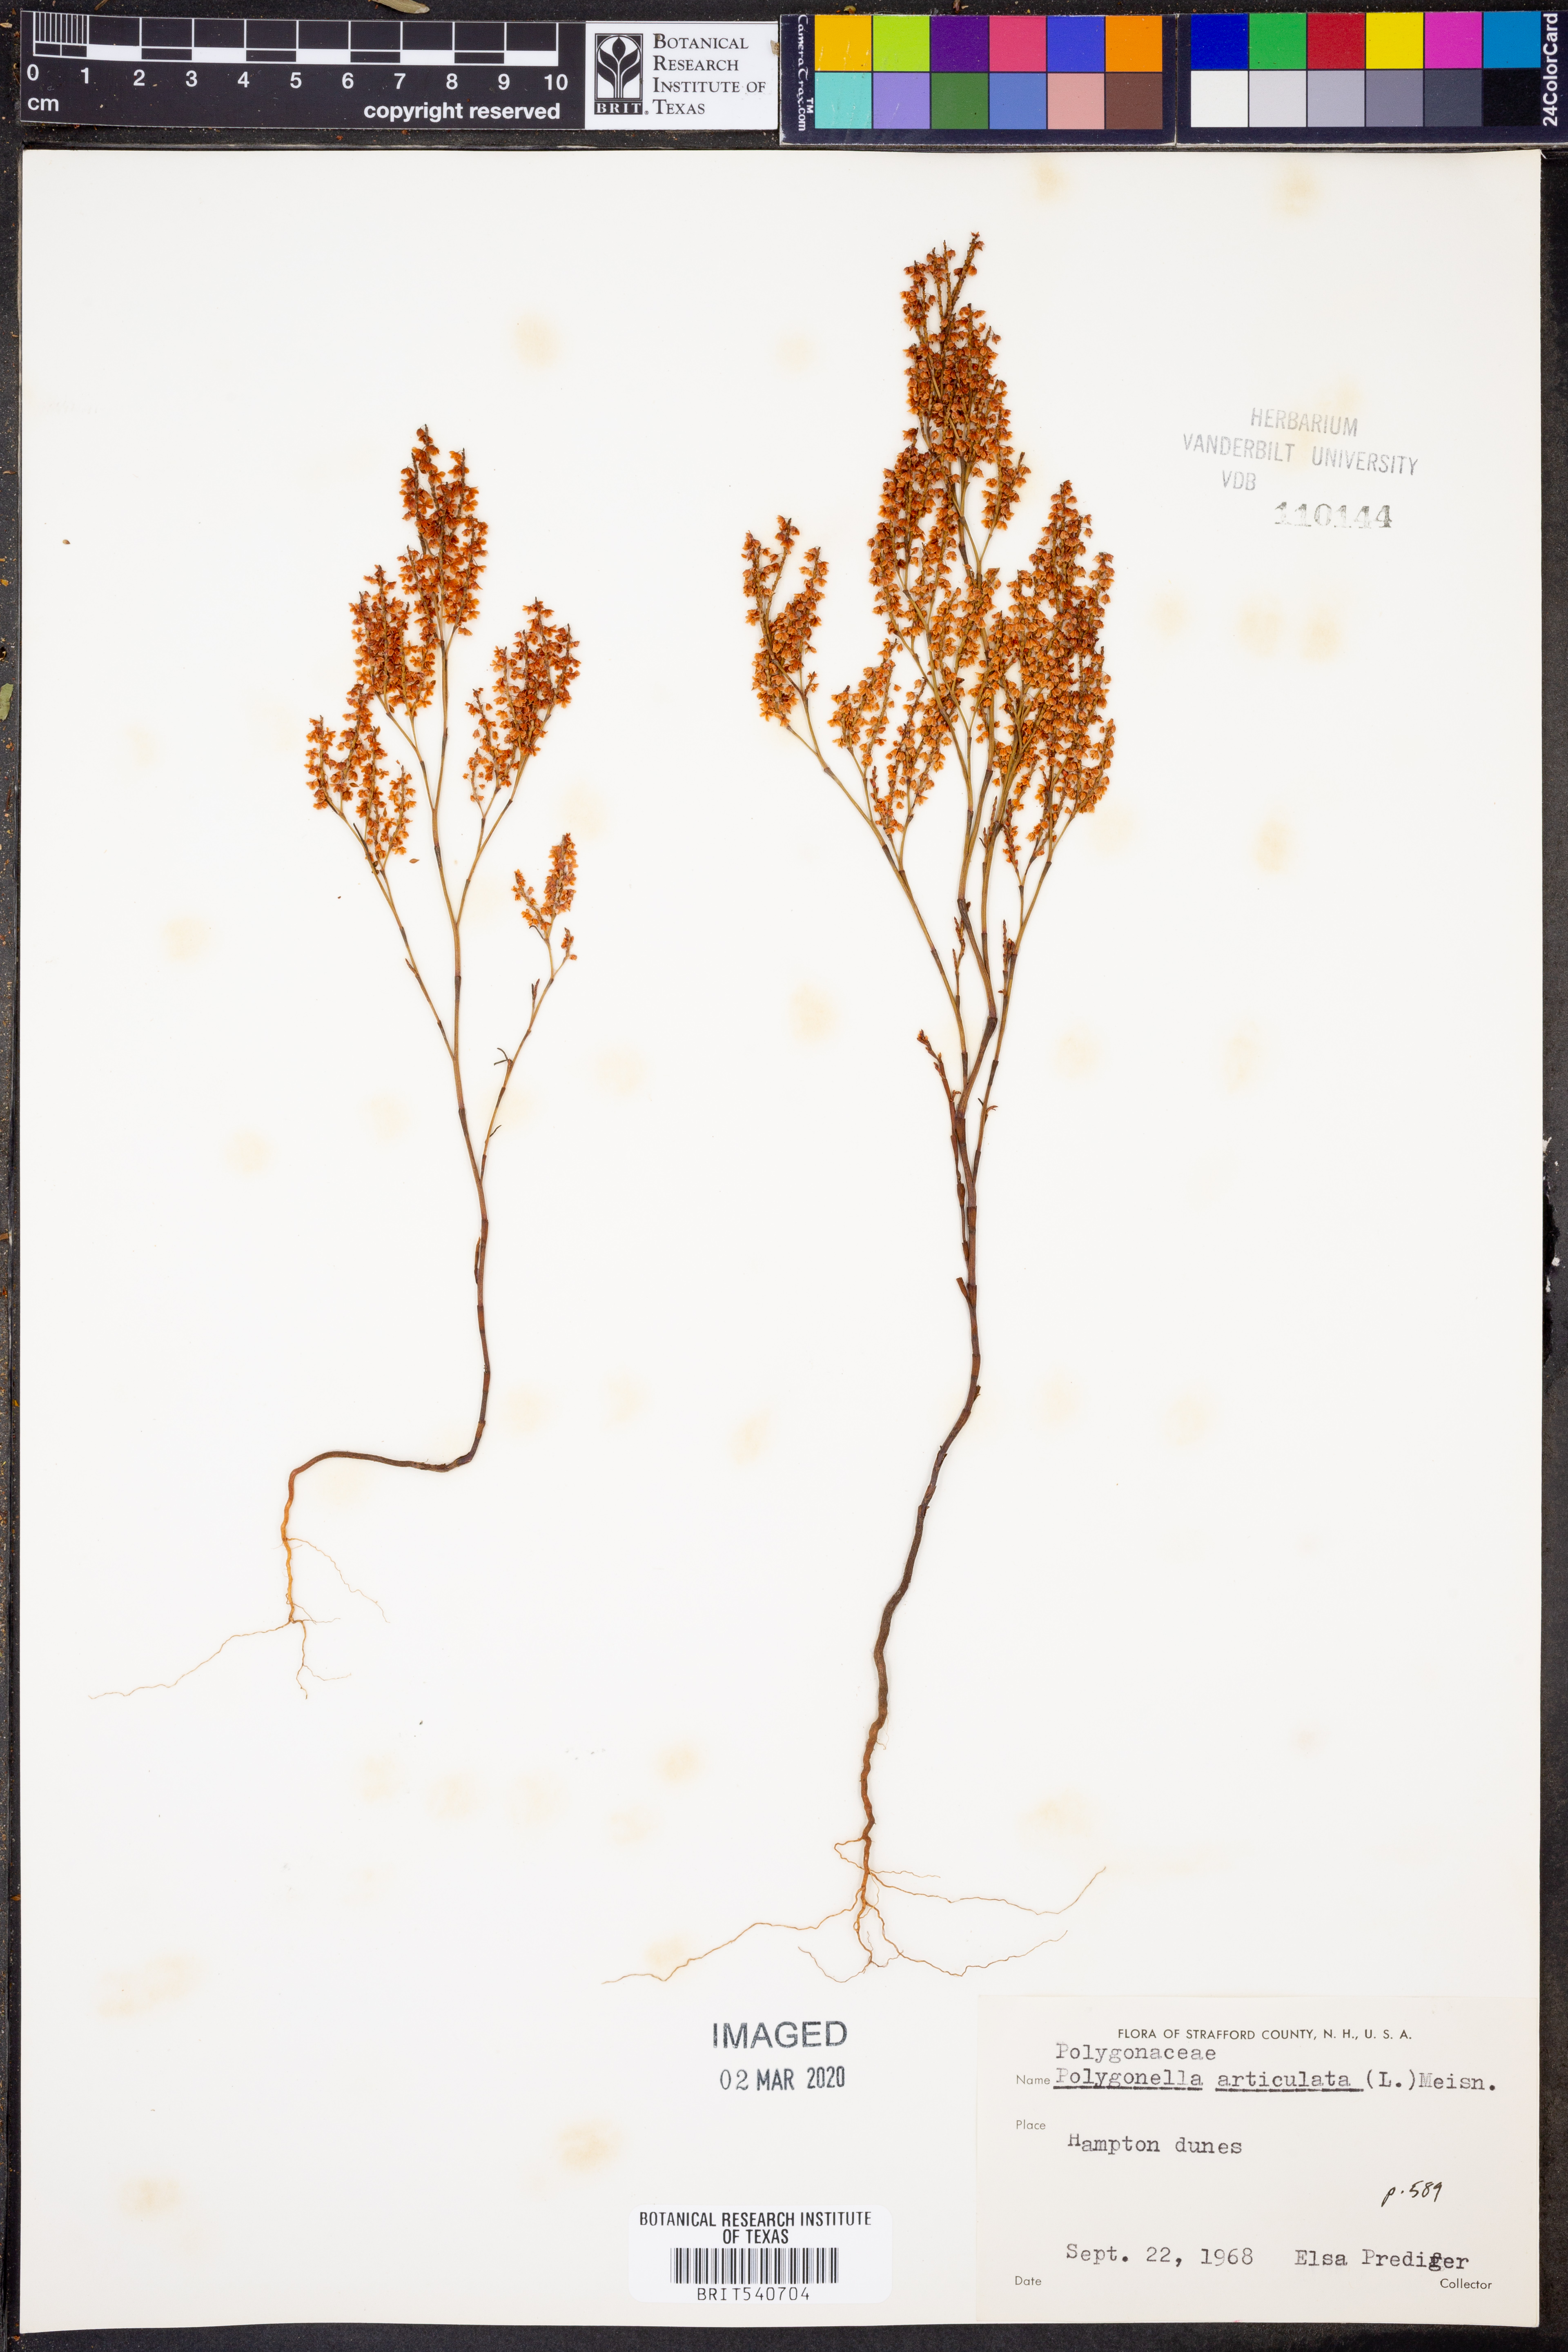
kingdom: Plantae
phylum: Tracheophyta
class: Magnoliopsida
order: Caryophyllales
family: Polygonaceae
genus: Polygonella
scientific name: Polygonella articulata
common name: Coastal jointweed
